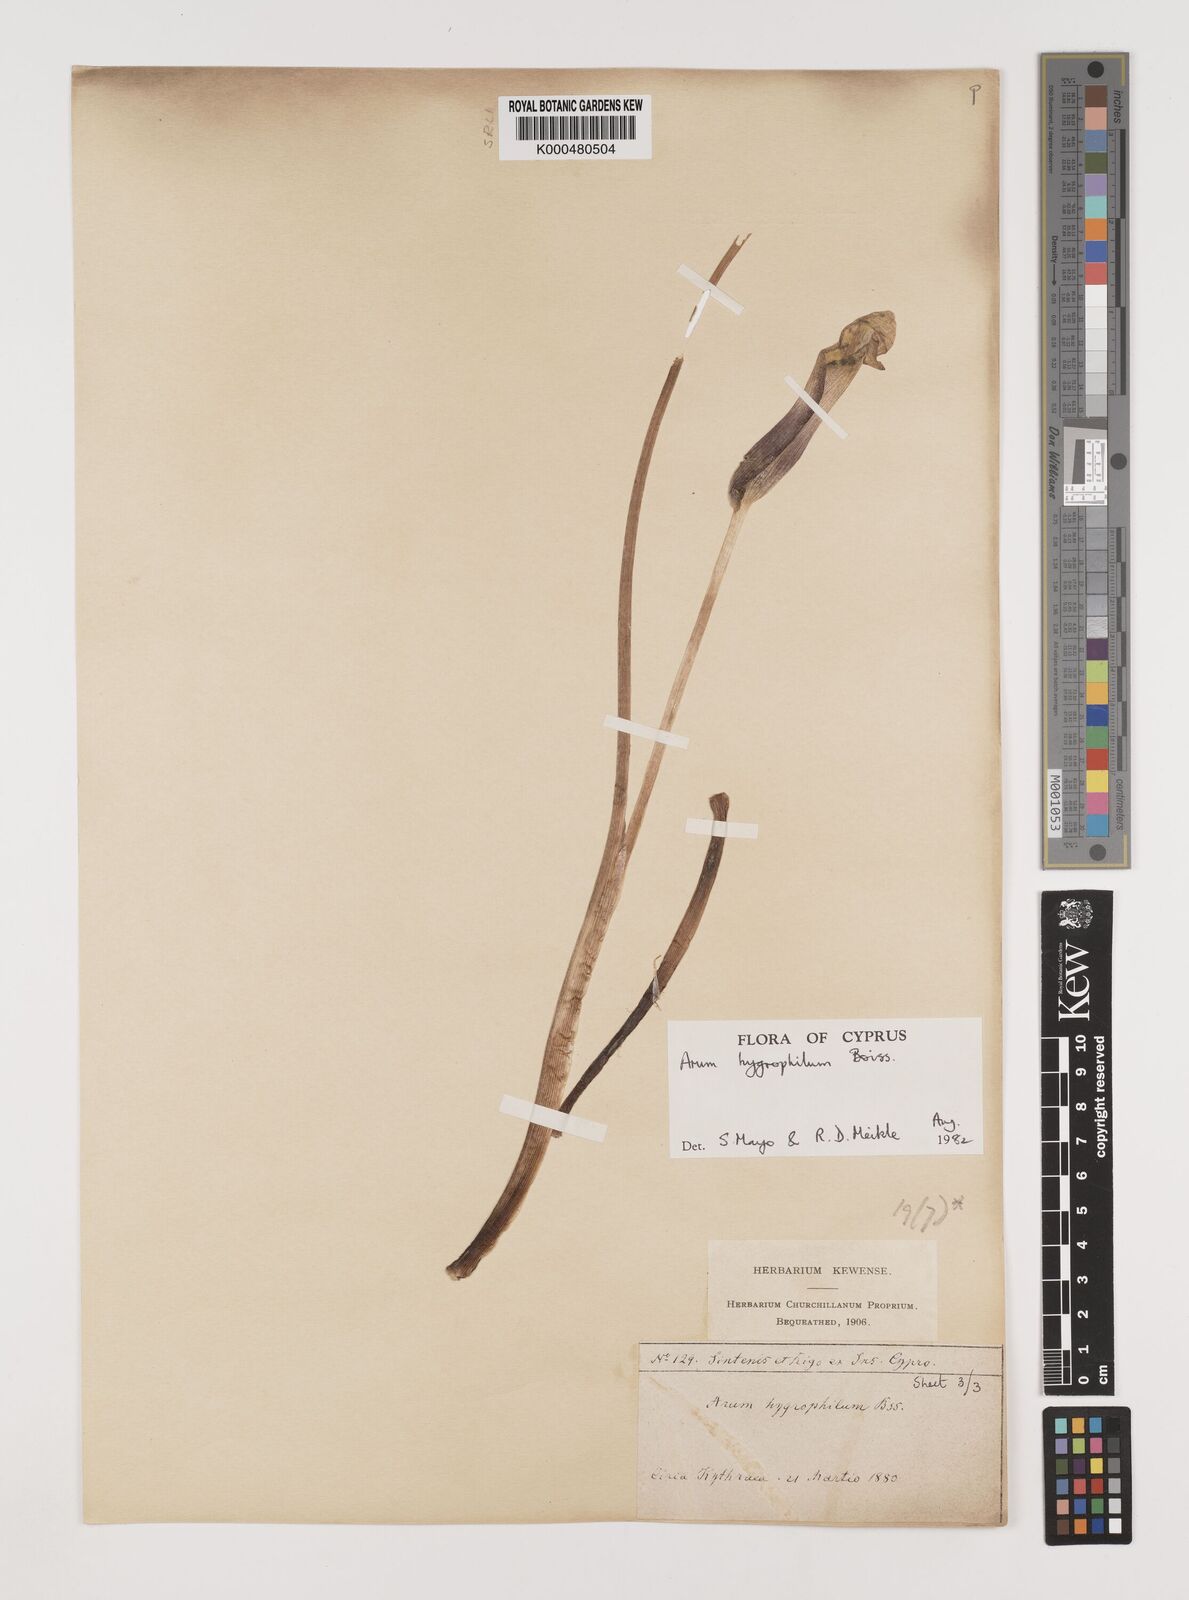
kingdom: Plantae
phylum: Tracheophyta
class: Liliopsida
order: Alismatales
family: Araceae
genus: Arum
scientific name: Arum hygrophilum
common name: Water arum
